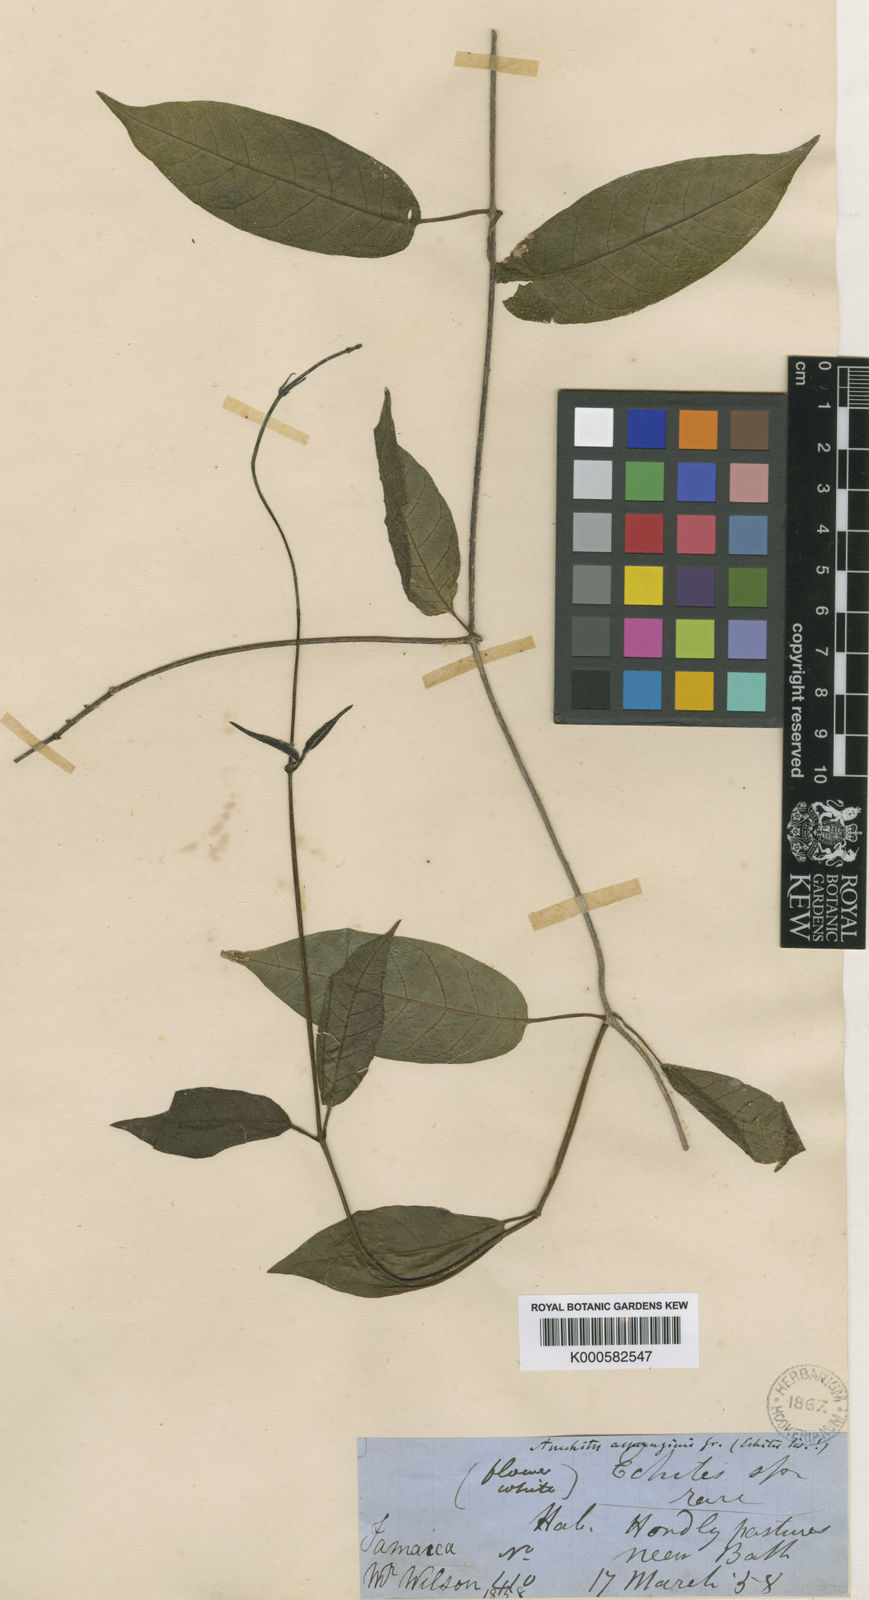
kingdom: Plantae
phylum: Tracheophyta
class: Magnoliopsida
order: Gentianales
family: Apocynaceae
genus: Anechites
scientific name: Anechites nerium
